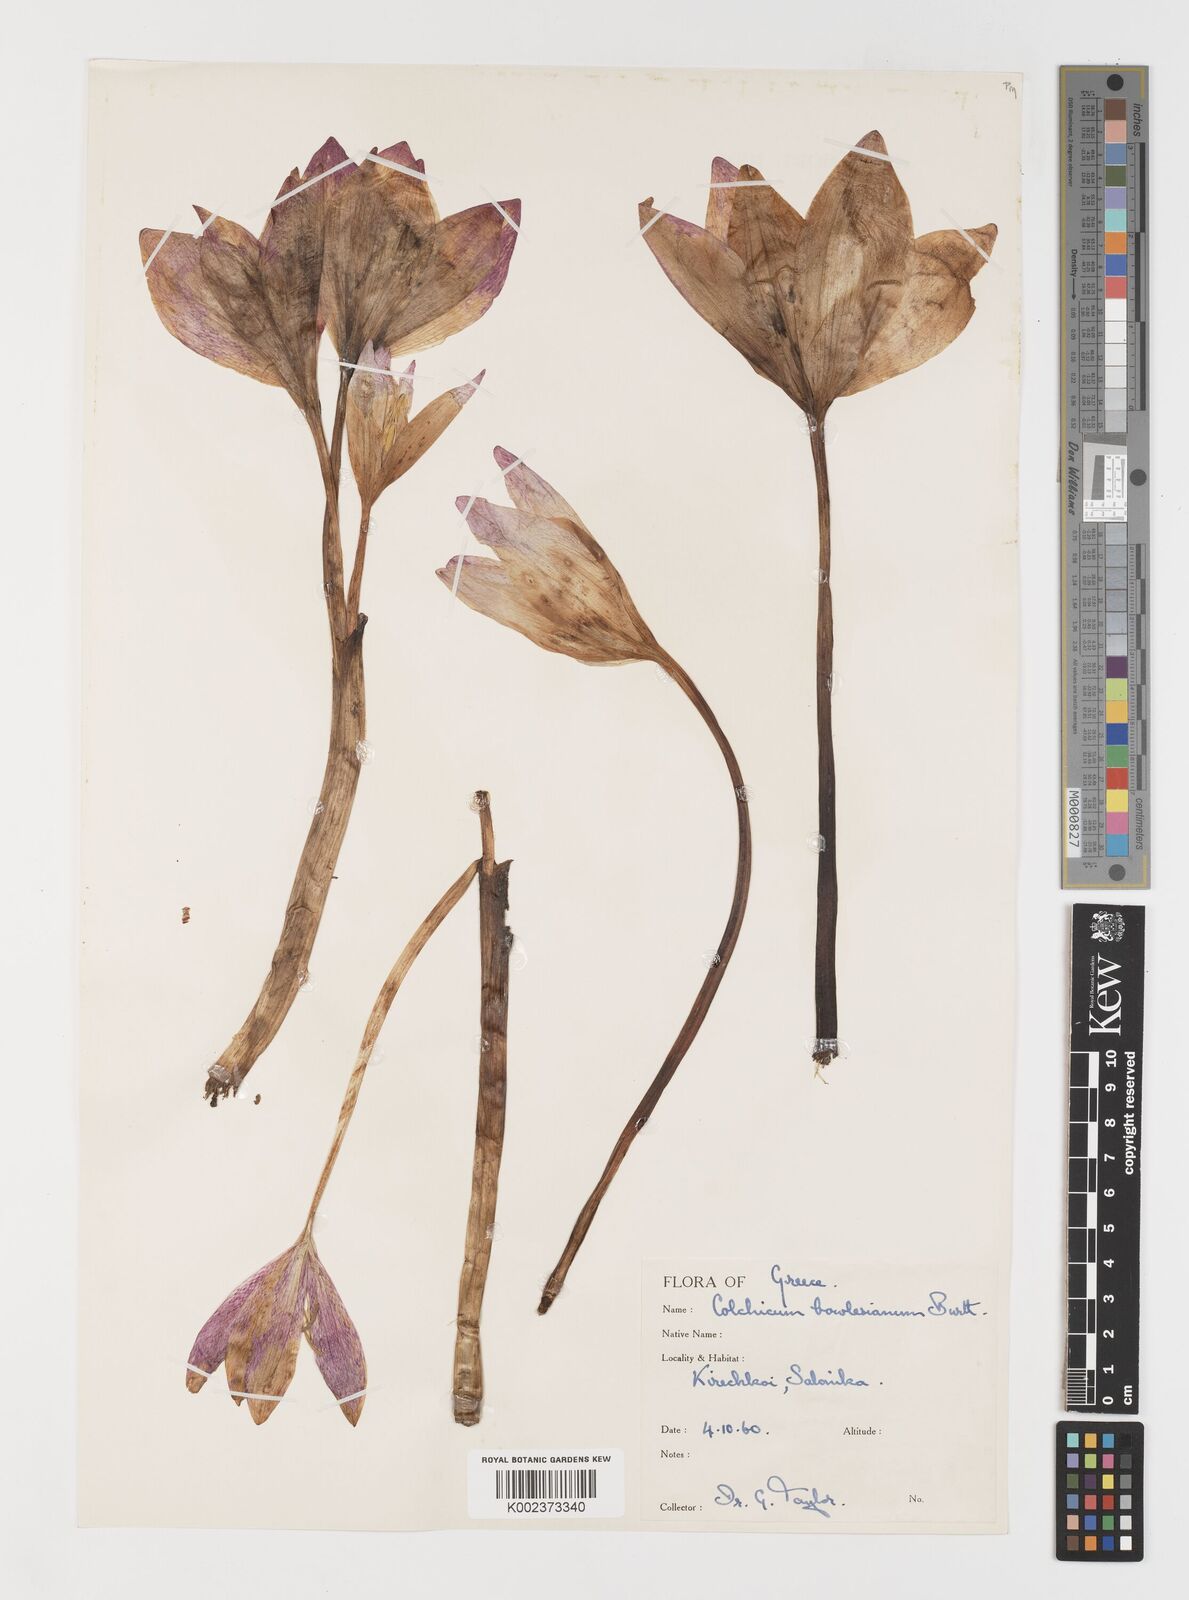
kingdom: Plantae
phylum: Tracheophyta
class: Liliopsida
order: Liliales
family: Colchicaceae
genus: Colchicum
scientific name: Colchicum bivonae
